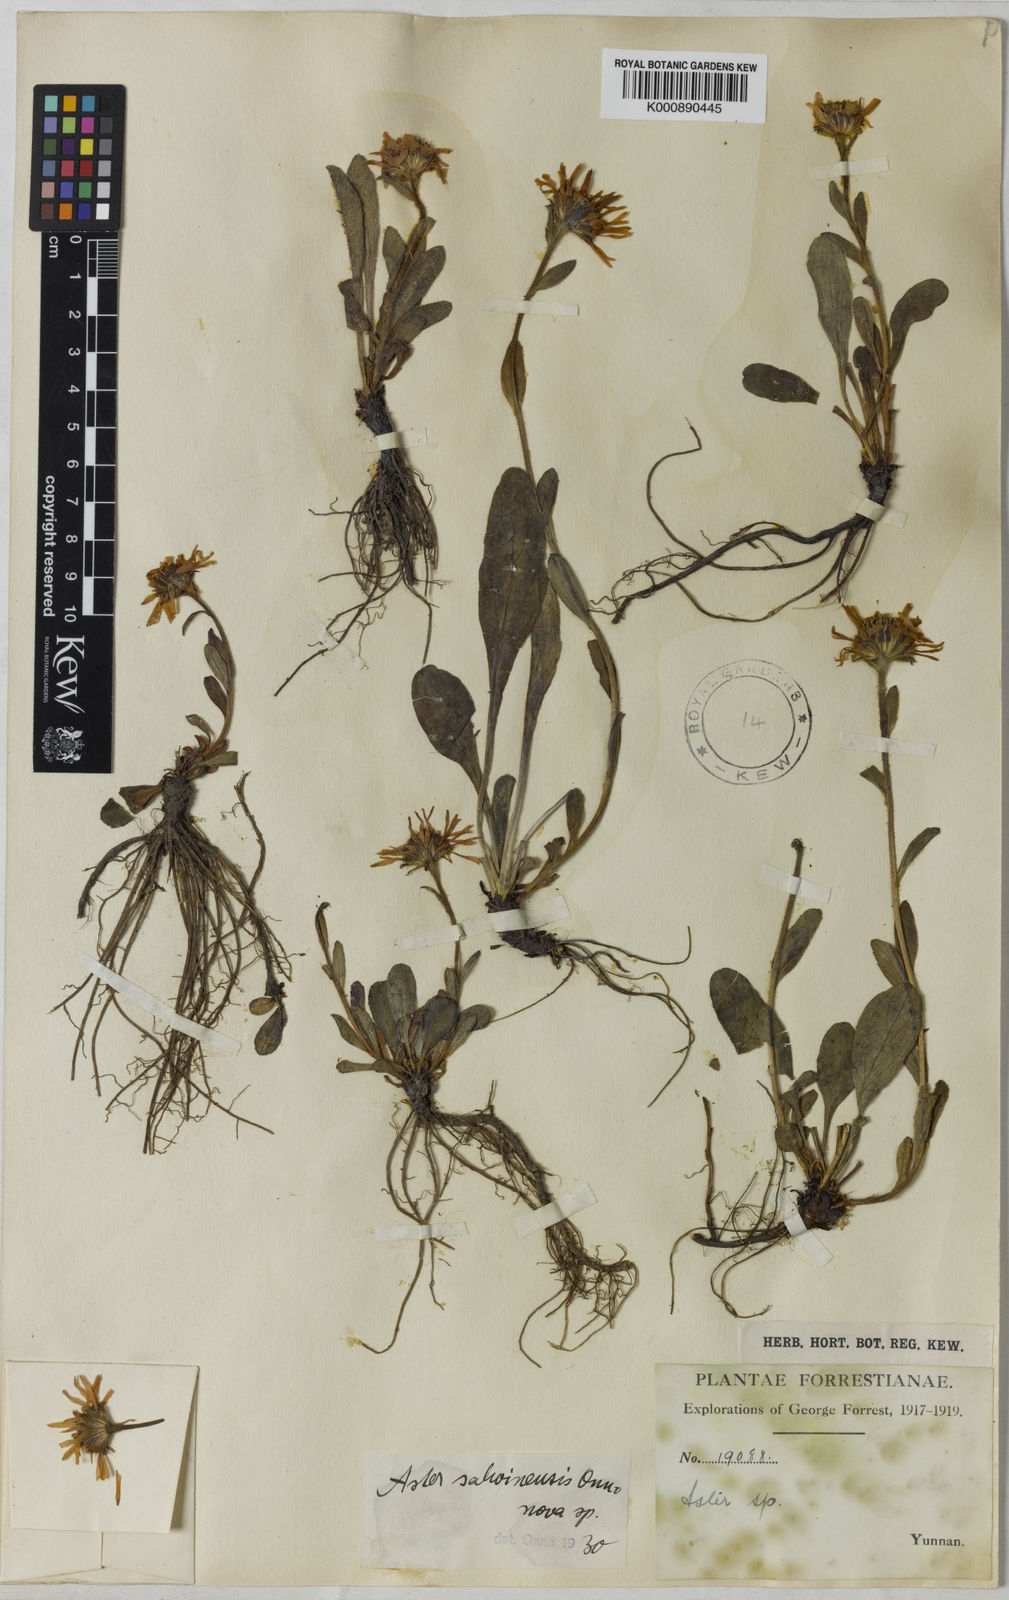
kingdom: Plantae
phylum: Tracheophyta
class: Magnoliopsida
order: Asterales
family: Asteraceae
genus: Tibetiodes
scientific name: Tibetiodes salwinensis
